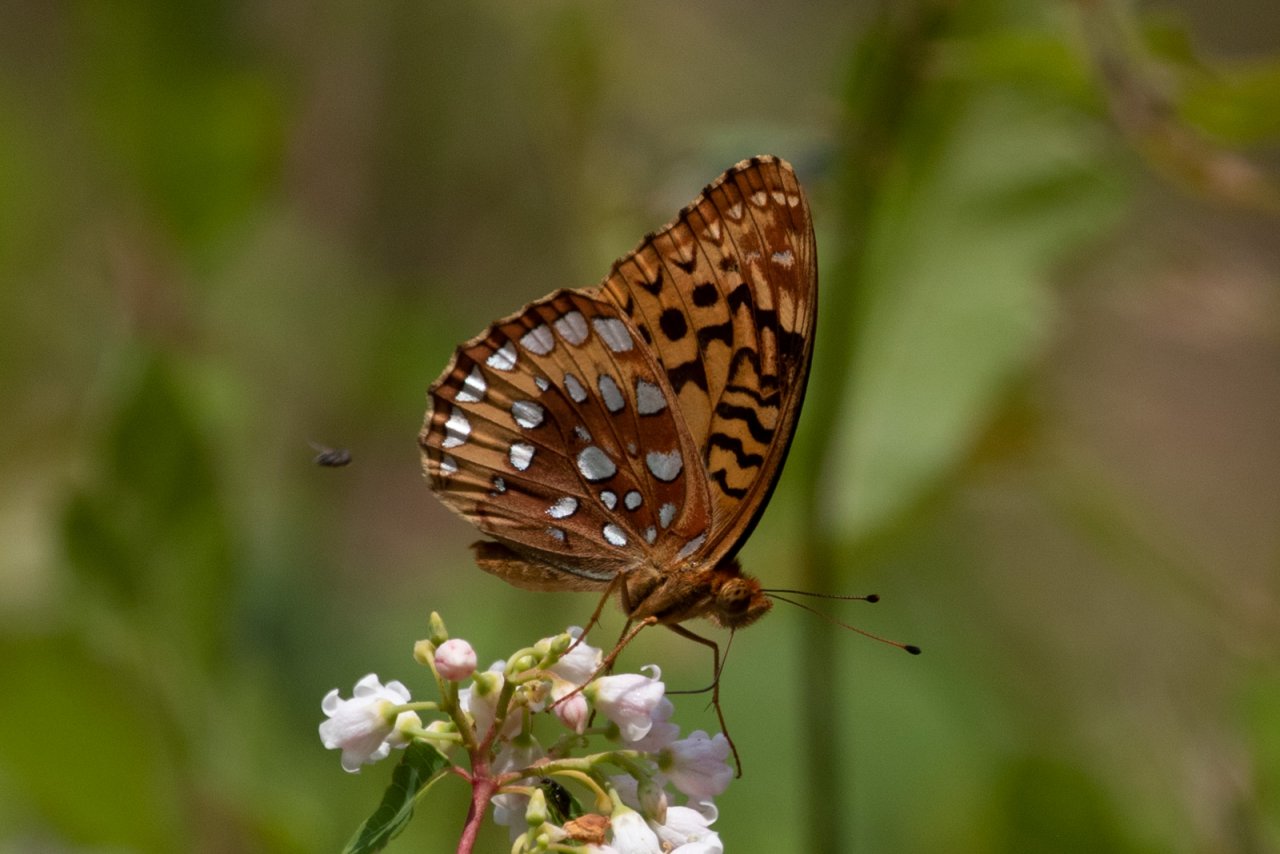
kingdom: Animalia
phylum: Arthropoda
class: Insecta
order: Lepidoptera
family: Nymphalidae
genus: Speyeria
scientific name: Speyeria cybele
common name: Great Spangled Fritillary
